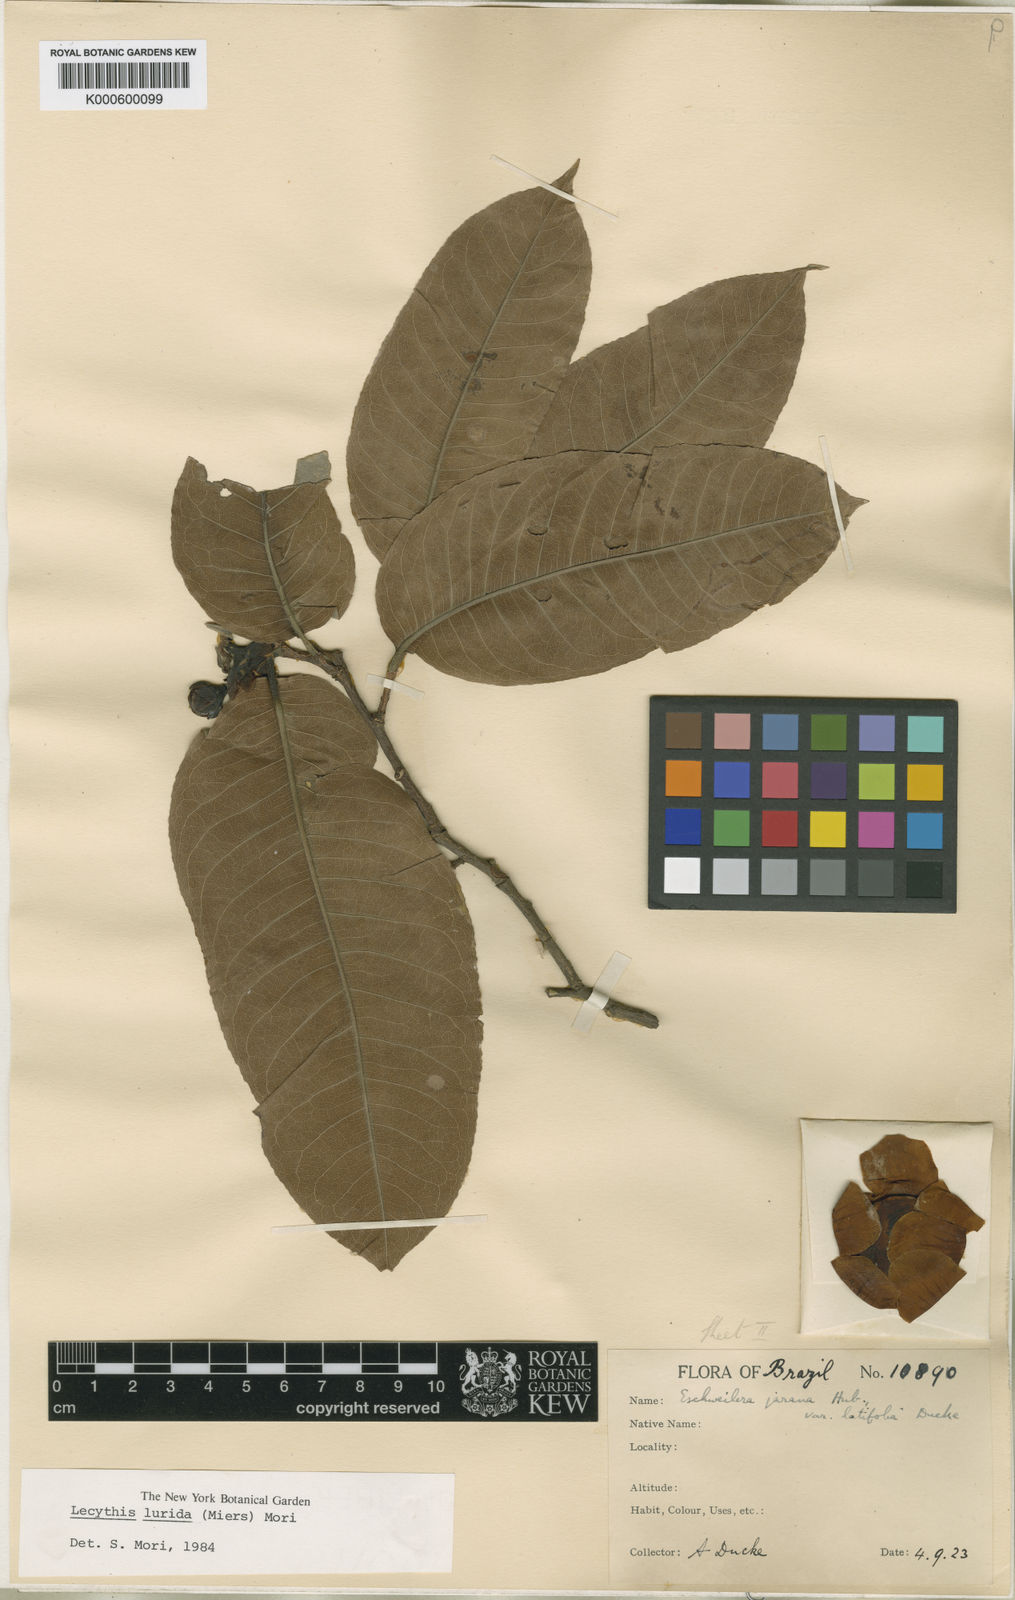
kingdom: Plantae
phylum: Tracheophyta
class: Magnoliopsida
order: Ericales
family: Lecythidaceae
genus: Lecythis
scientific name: Lecythis lurida
